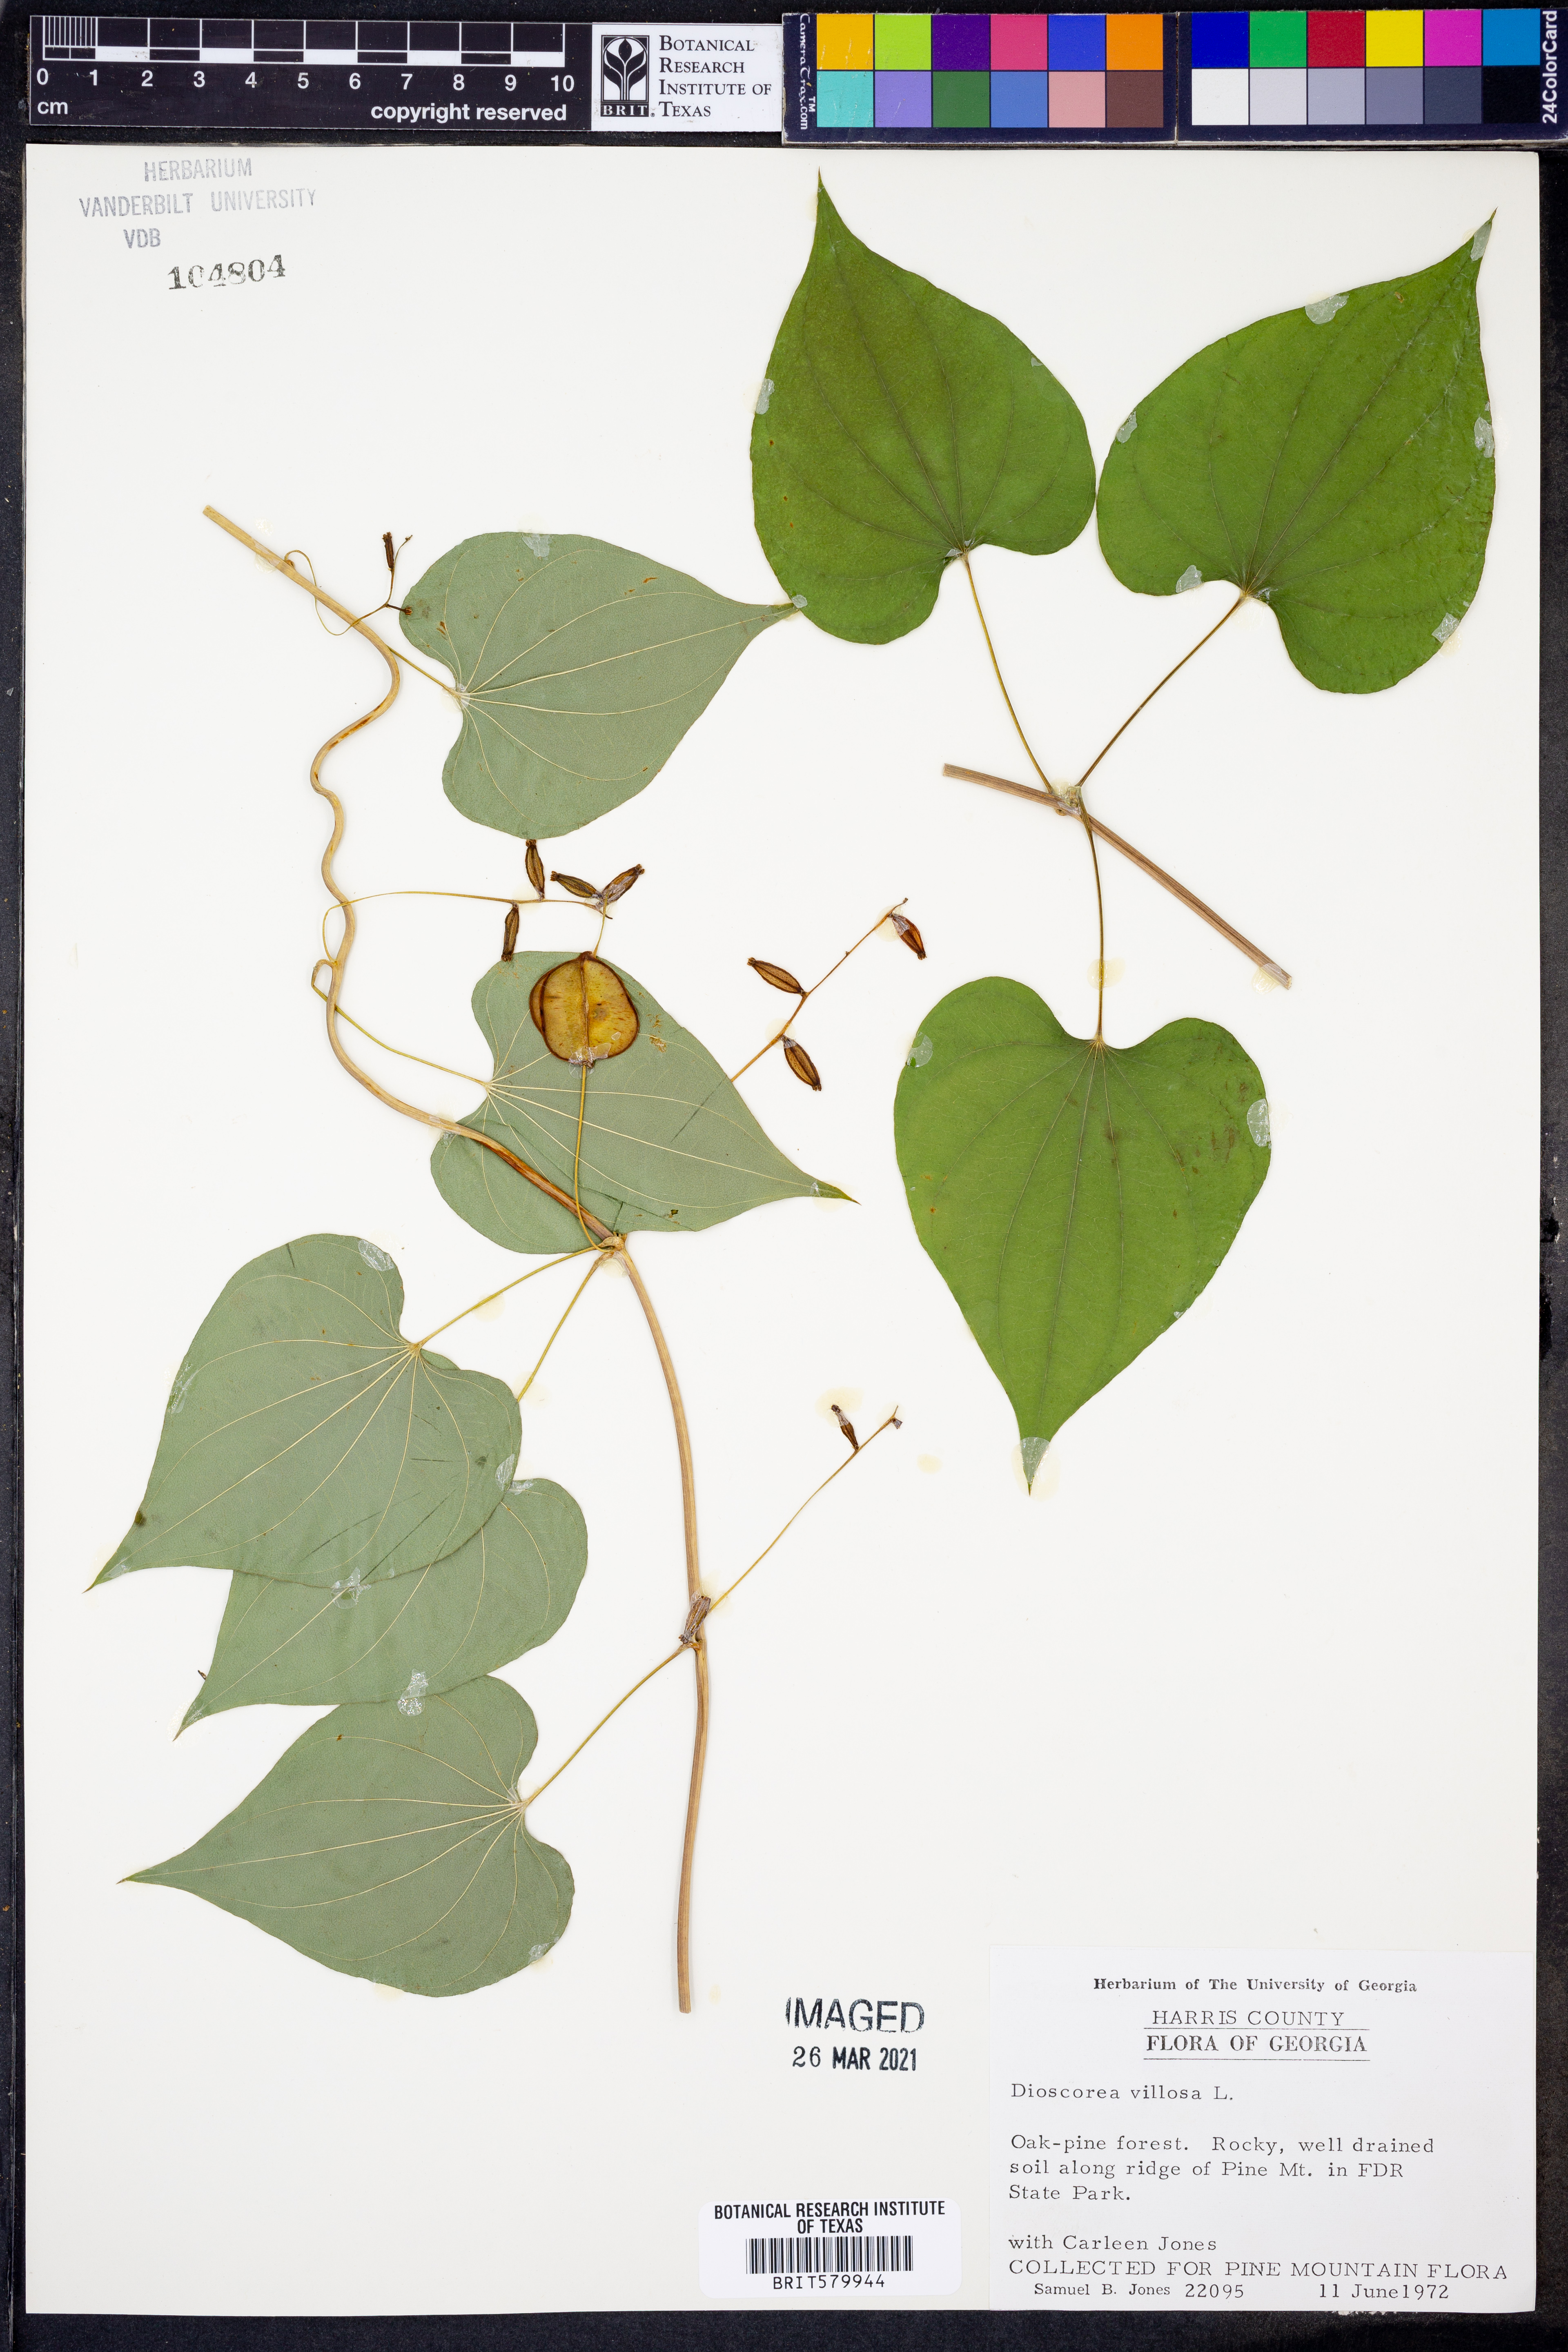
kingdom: Plantae
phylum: Tracheophyta
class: Liliopsida
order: Dioscoreales
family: Dioscoreaceae
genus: Dioscorea
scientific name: Dioscorea villosa
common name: Wild yam
